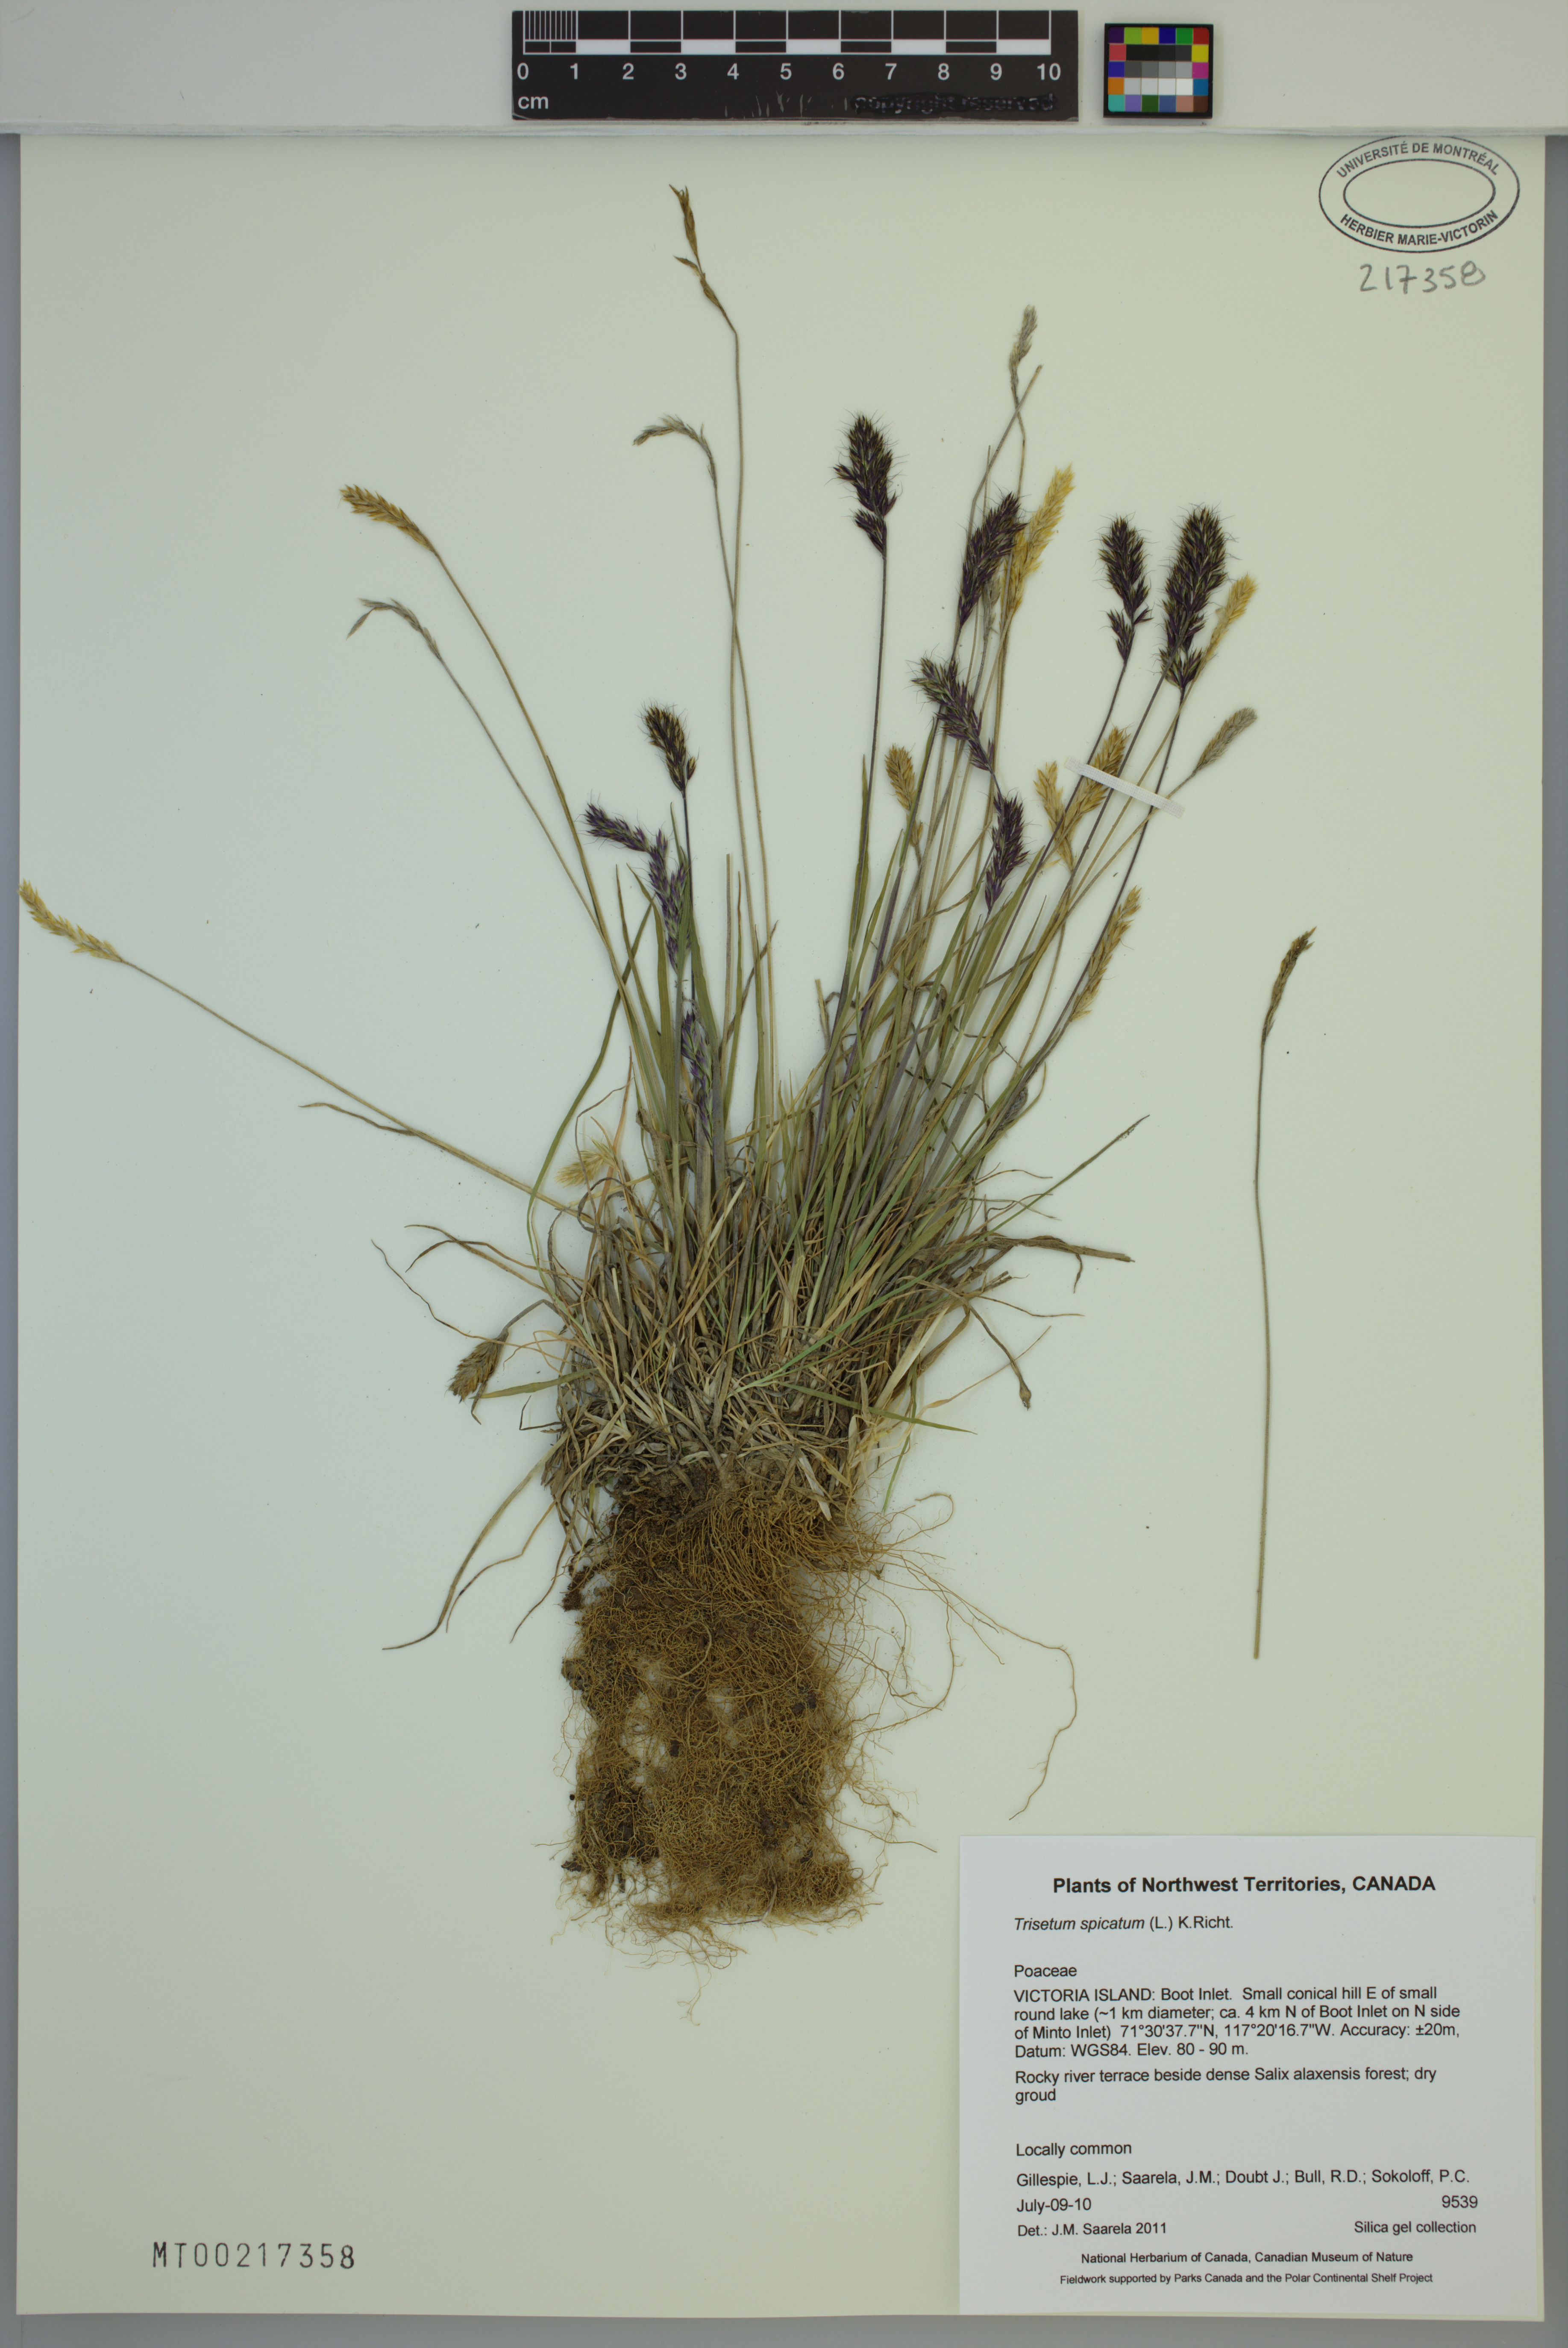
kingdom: Plantae
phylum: Tracheophyta
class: Liliopsida
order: Poales
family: Poaceae
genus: Koeleria
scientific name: Koeleria spicata
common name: Mountain trisetum
